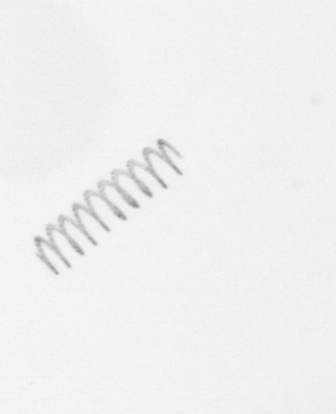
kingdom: Chromista
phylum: Ochrophyta
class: Bacillariophyceae
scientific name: Bacillariophyceae
